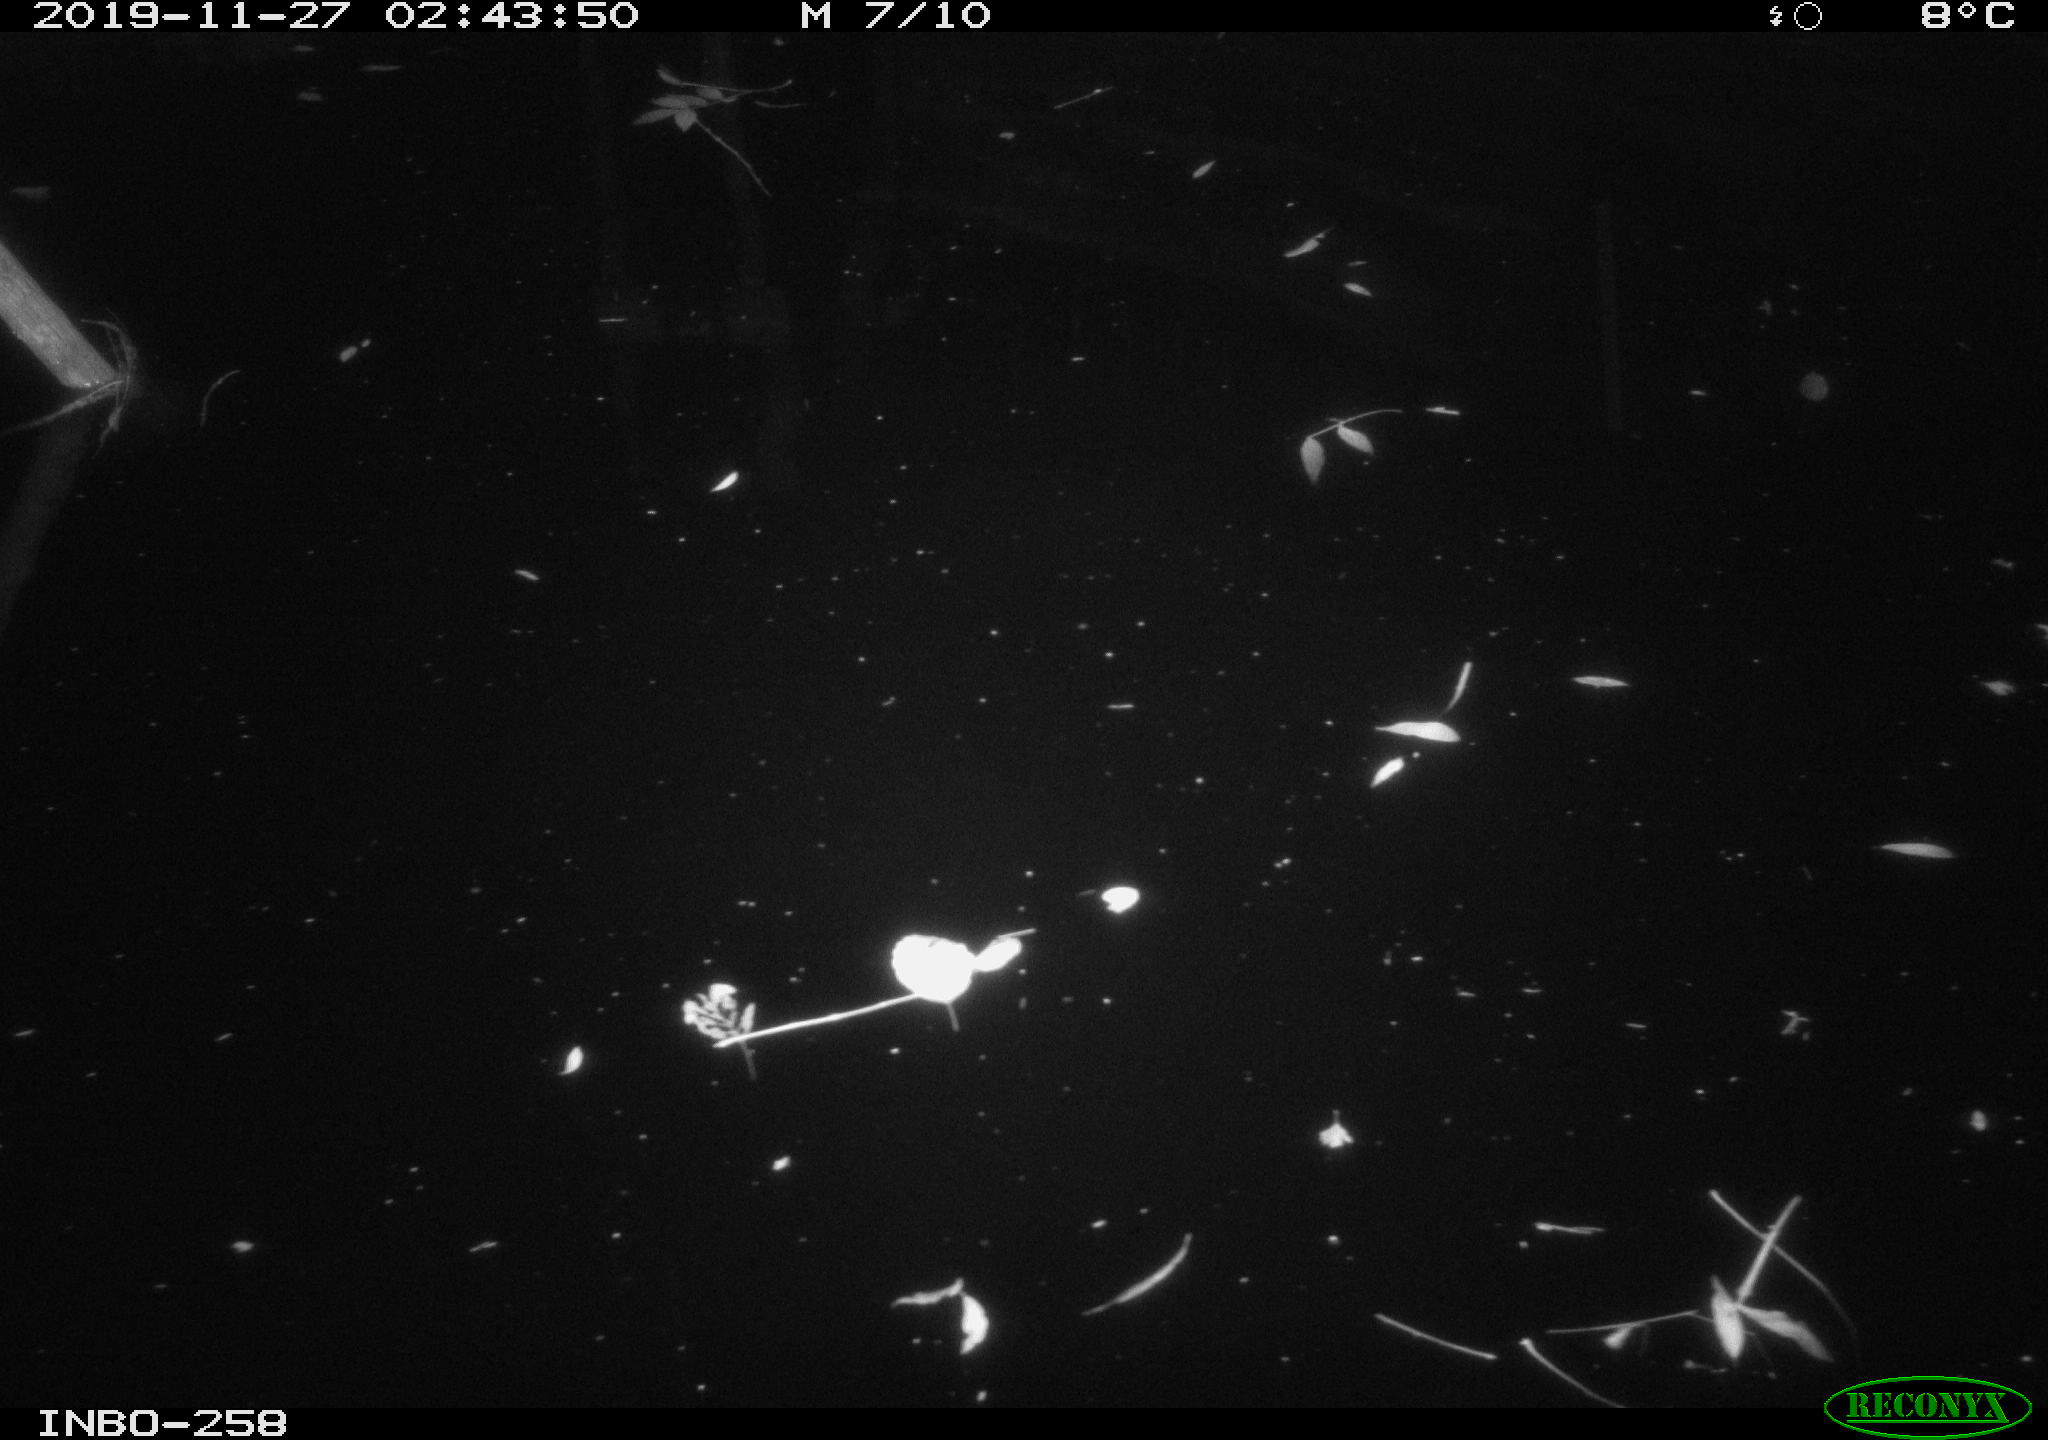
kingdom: Animalia
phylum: Chordata
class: Aves
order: Anseriformes
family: Anatidae
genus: Anas
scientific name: Anas platyrhynchos
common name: Mallard
